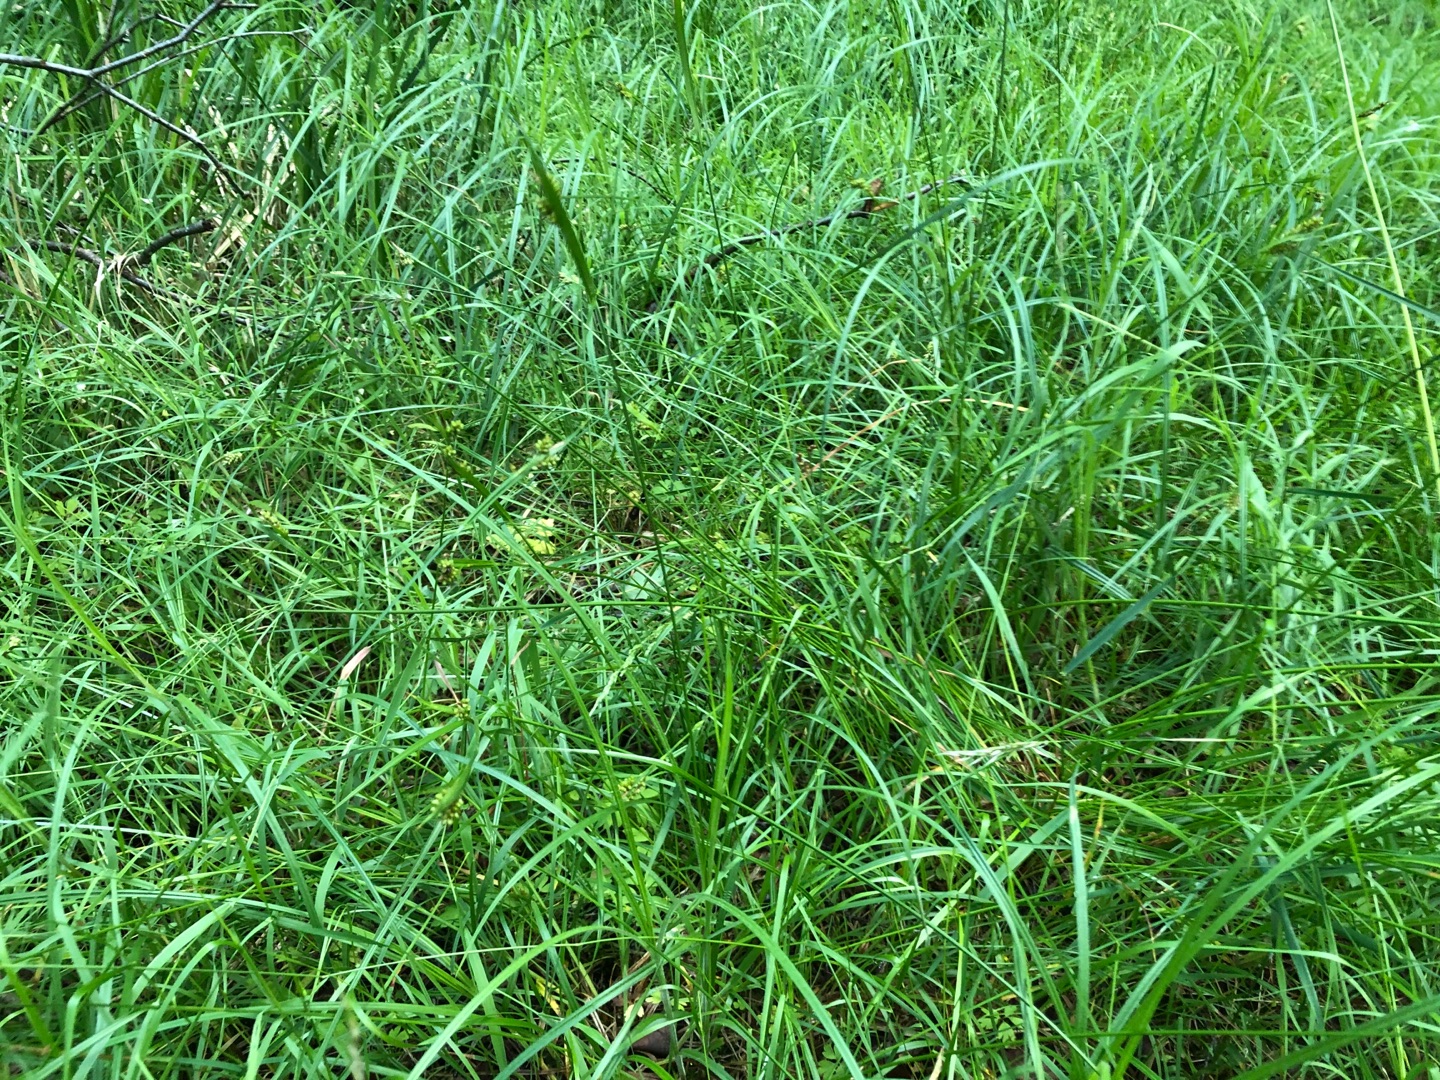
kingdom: Plantae
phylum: Tracheophyta
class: Liliopsida
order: Poales
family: Cyperaceae
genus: Carex
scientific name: Carex pallescens
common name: Bleg star
